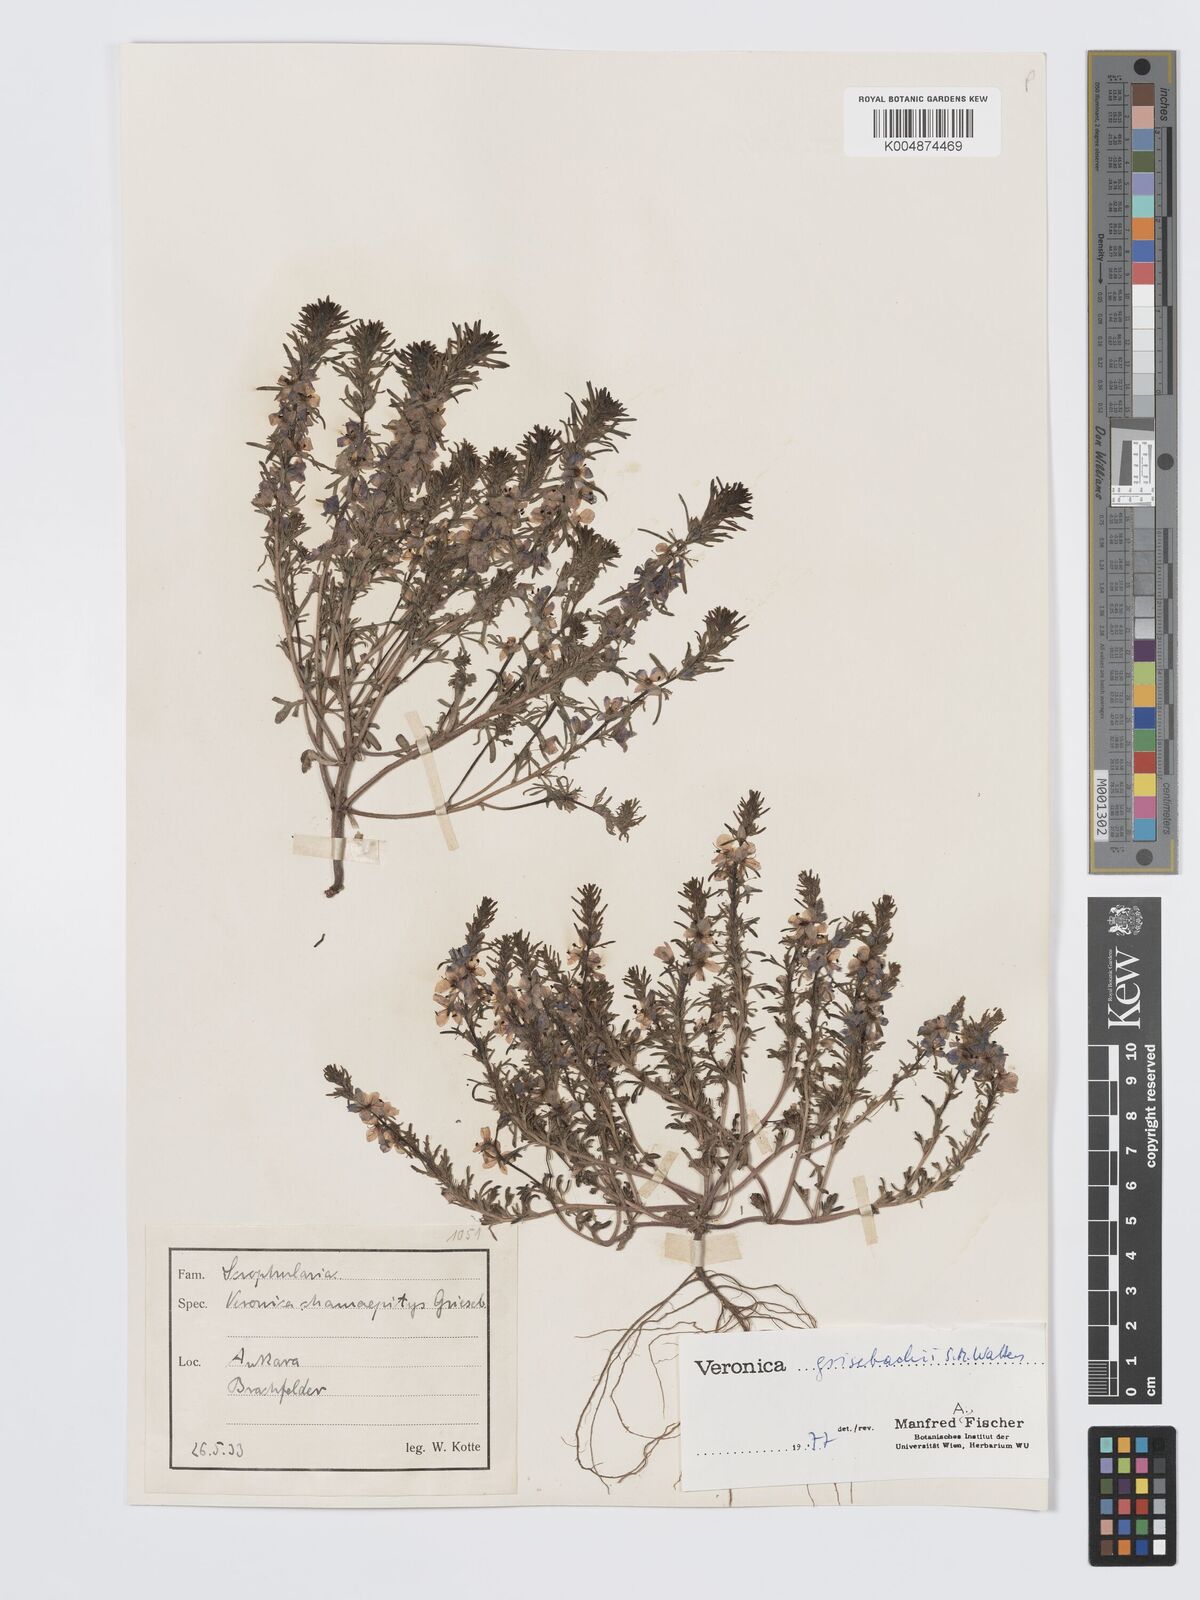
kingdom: Plantae
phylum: Tracheophyta
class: Magnoliopsida
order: Lamiales
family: Plantaginaceae
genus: Veronica
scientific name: Veronica grisebachii
